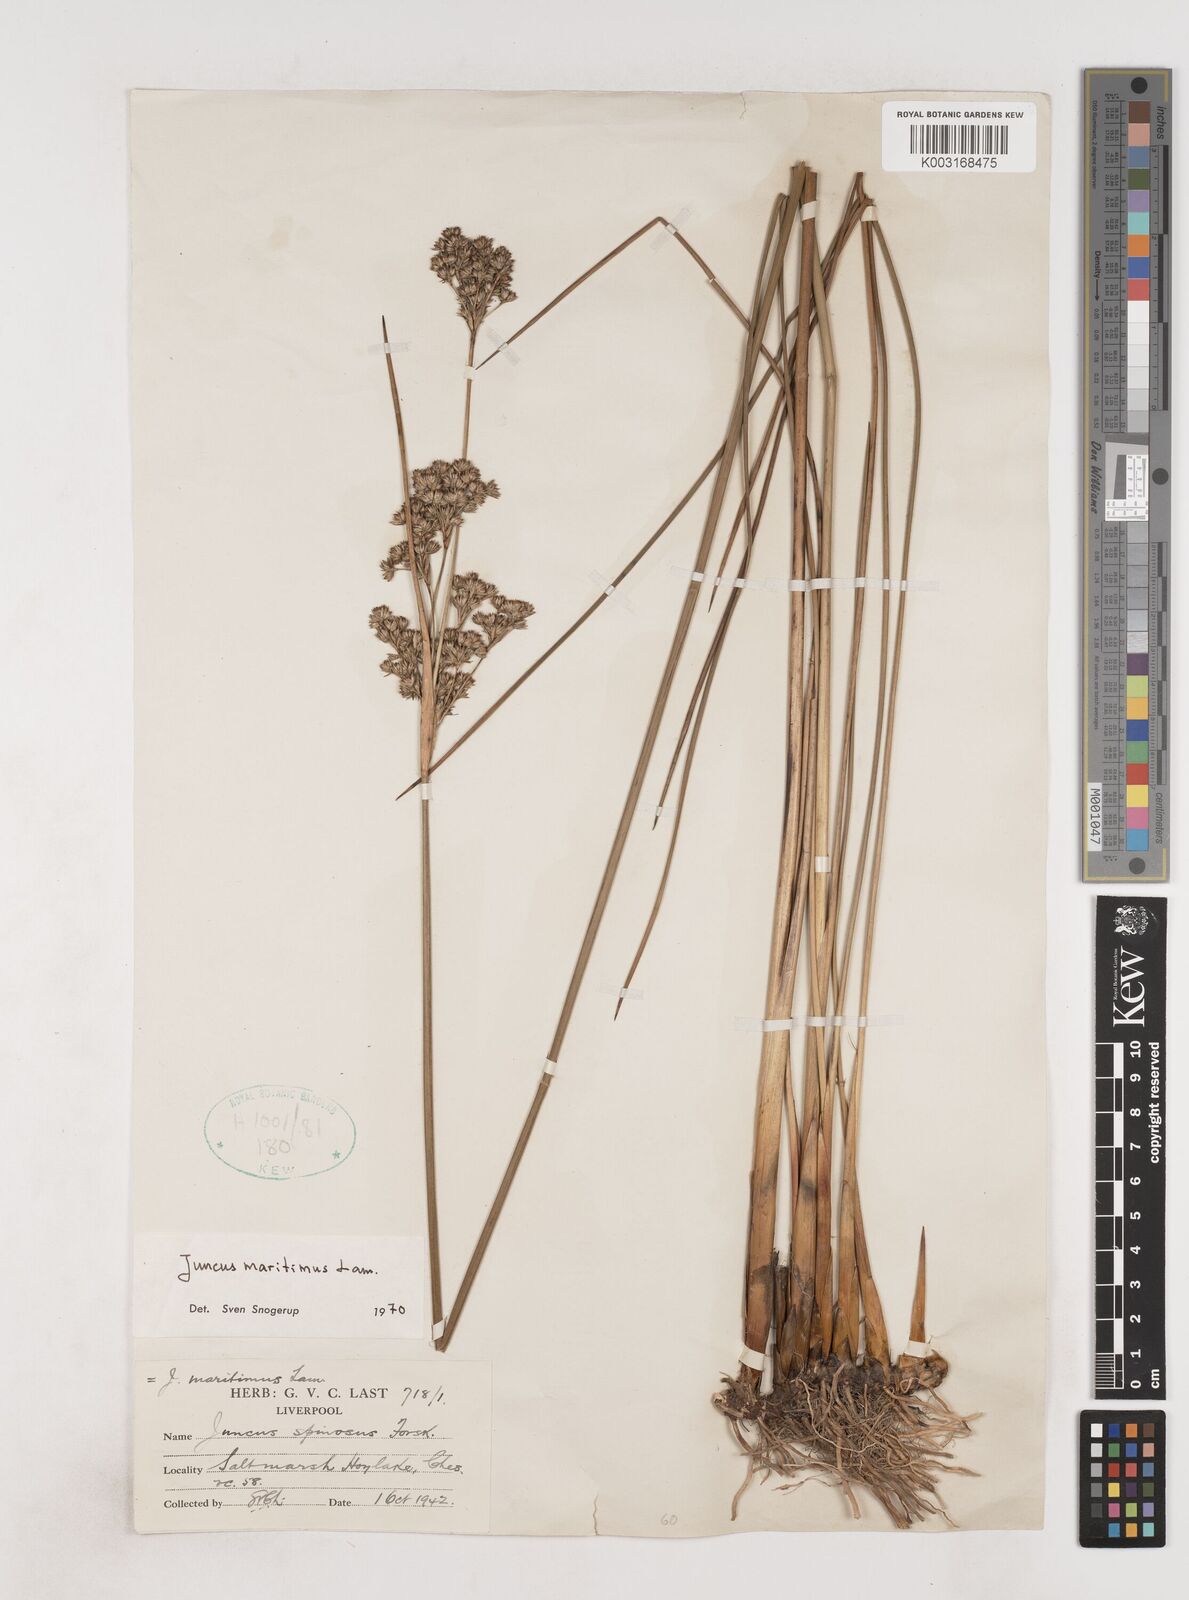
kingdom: Plantae
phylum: Tracheophyta
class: Liliopsida
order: Poales
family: Juncaceae
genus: Juncus
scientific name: Juncus maritimus
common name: Sea rush
